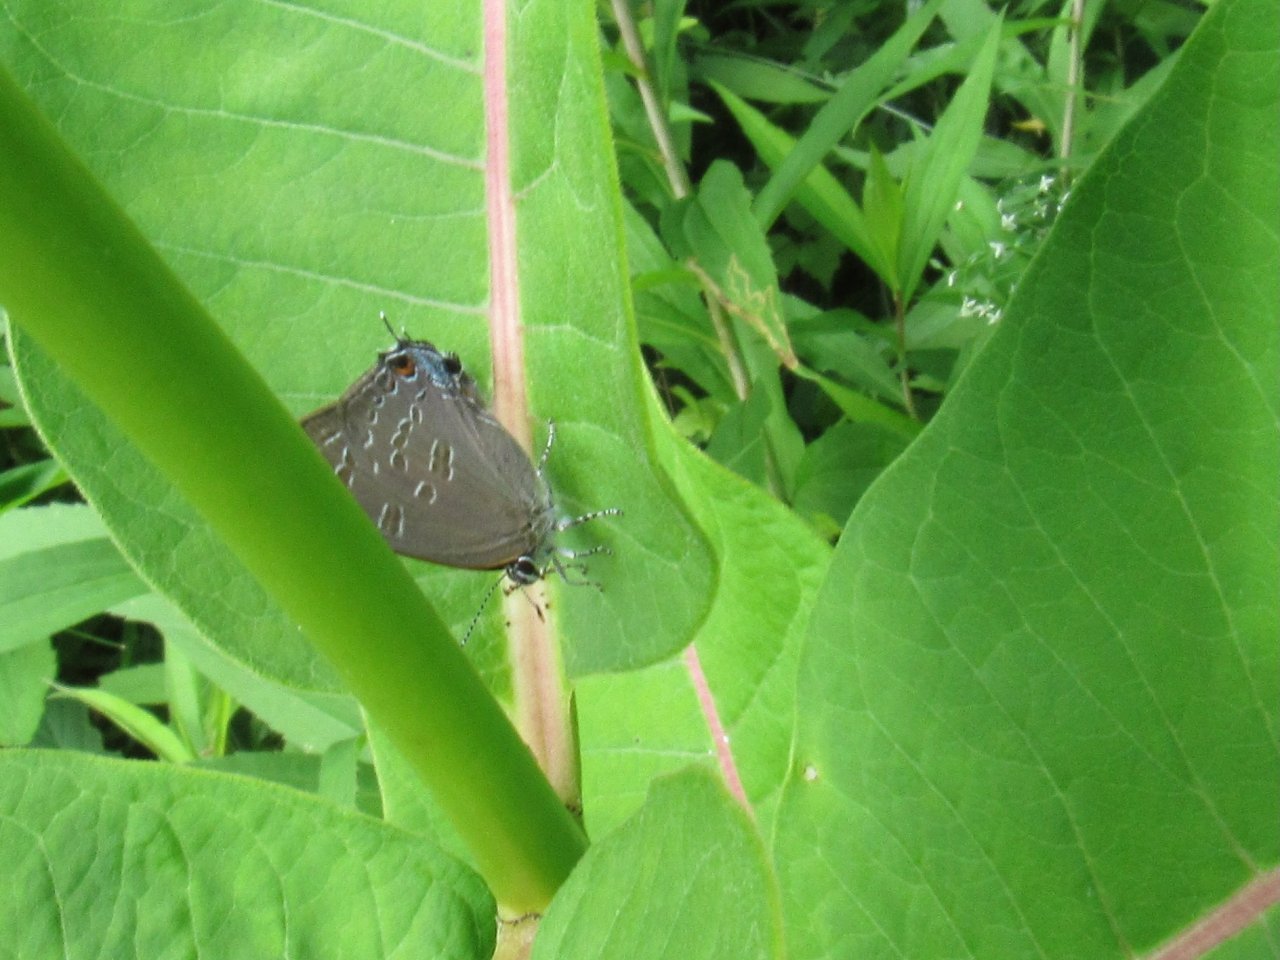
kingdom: Animalia
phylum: Arthropoda
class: Insecta
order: Lepidoptera
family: Lycaenidae
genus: Strymon
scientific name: Strymon caryaevorus
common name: Hickory Hairstreak
